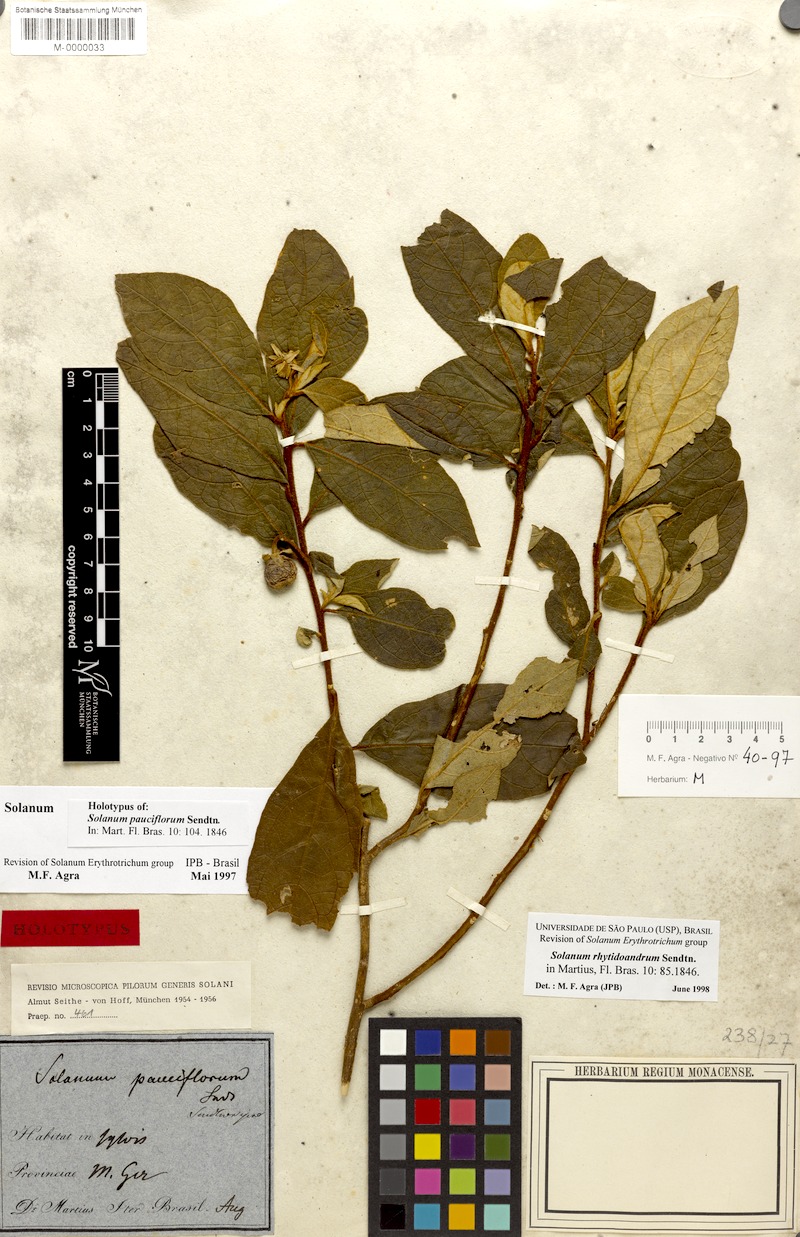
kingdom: Plantae
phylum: Tracheophyta
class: Magnoliopsida
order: Solanales
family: Solanaceae
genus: Solanum
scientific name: Solanum rhytidoandrum
